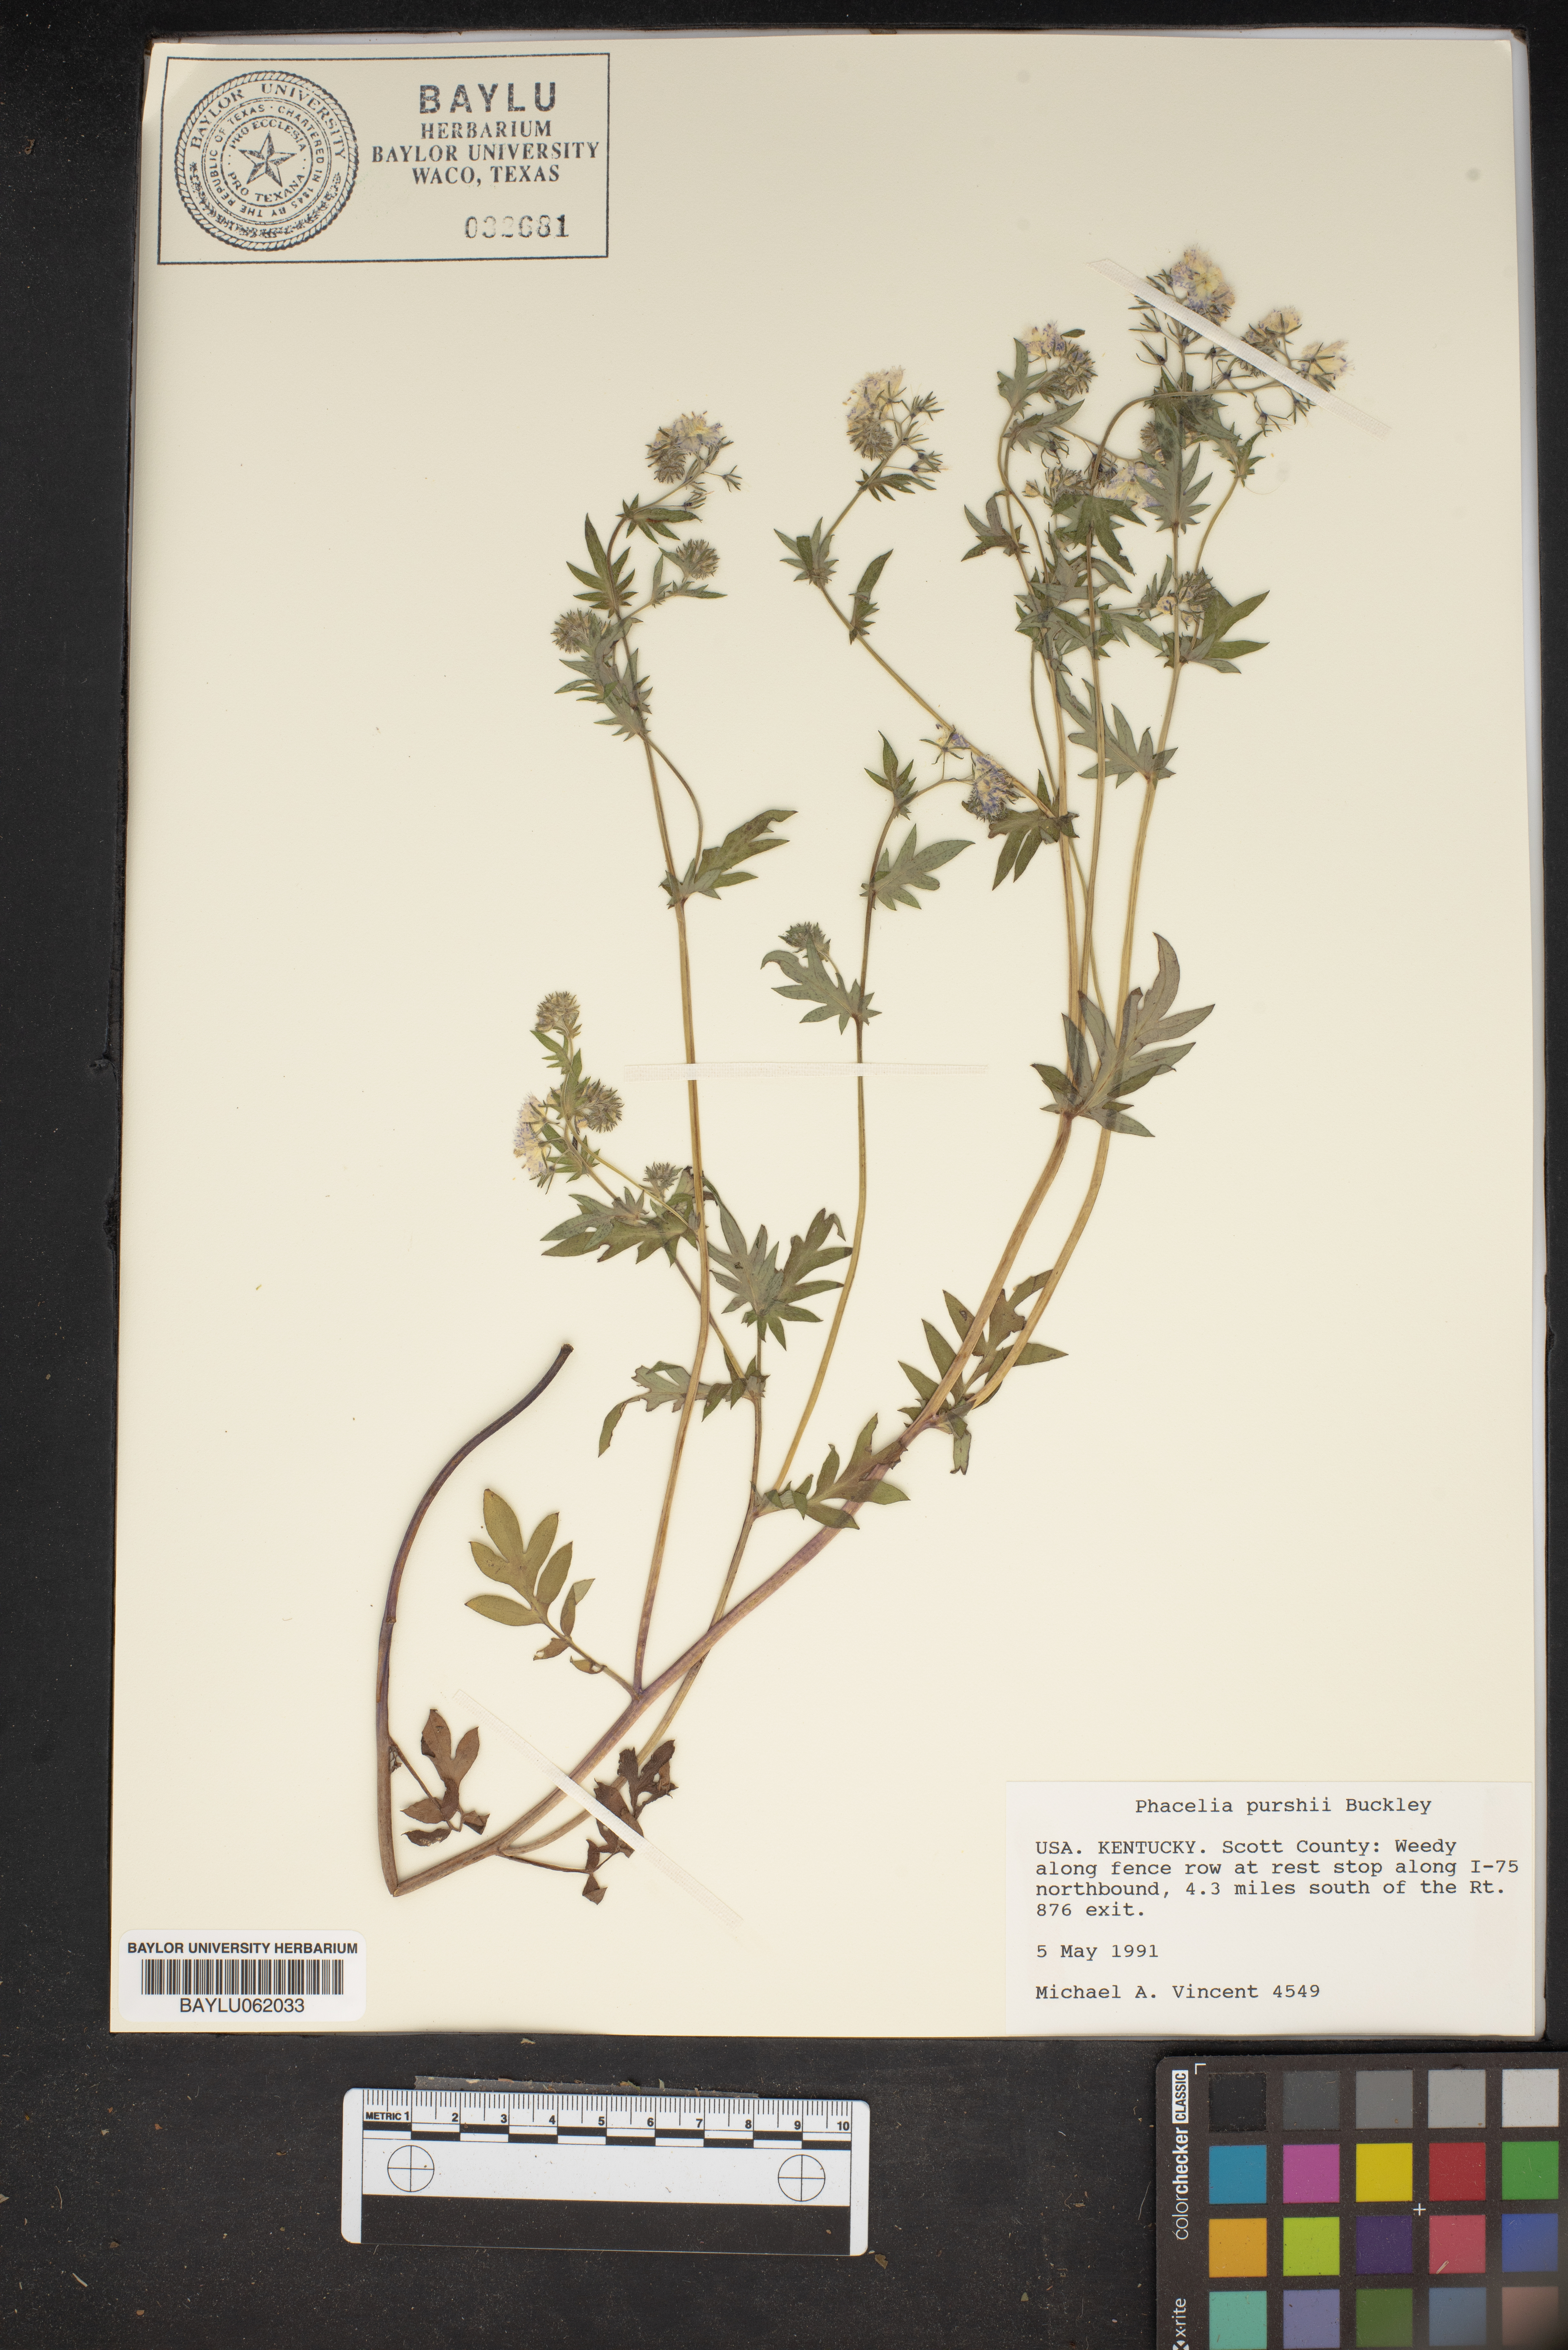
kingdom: Plantae
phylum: Tracheophyta
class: Magnoliopsida
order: Boraginales
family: Hydrophyllaceae
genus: Phacelia
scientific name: Phacelia purshii
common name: Miami-mist
